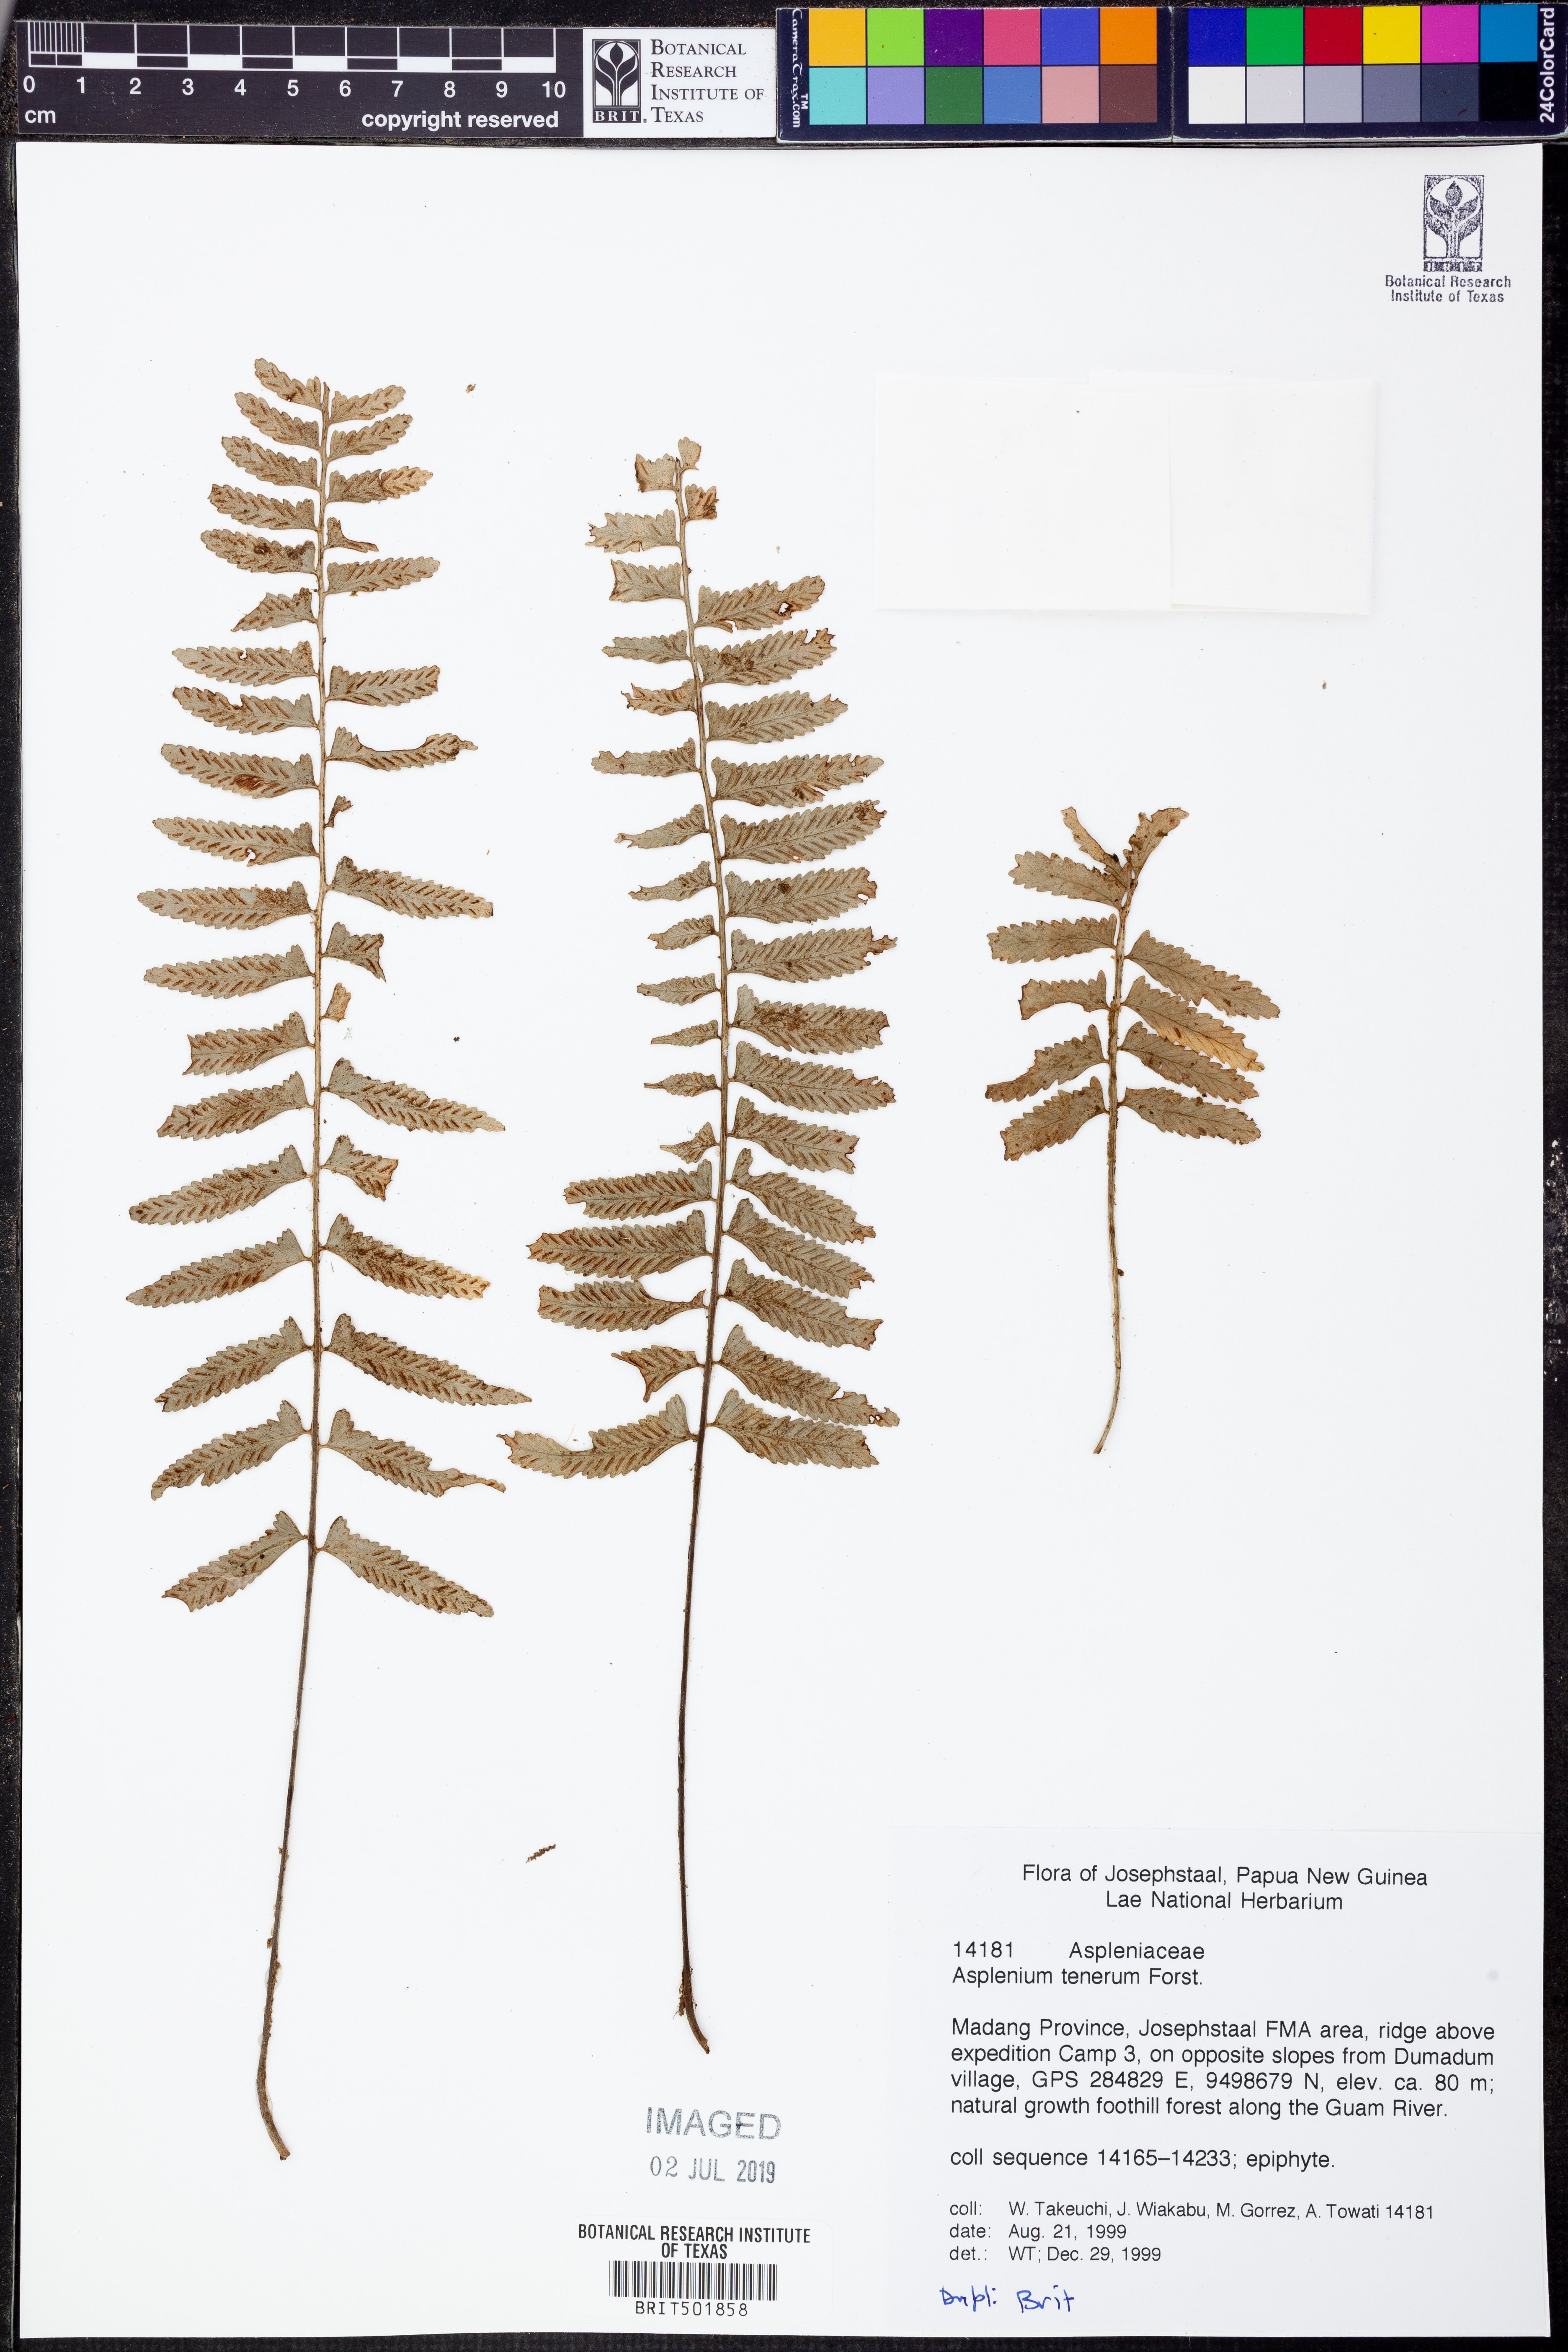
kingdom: Plantae
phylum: Tracheophyta
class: Polypodiopsida
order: Polypodiales
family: Aspleniaceae
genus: Asplenium
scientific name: Asplenium auriculatum
